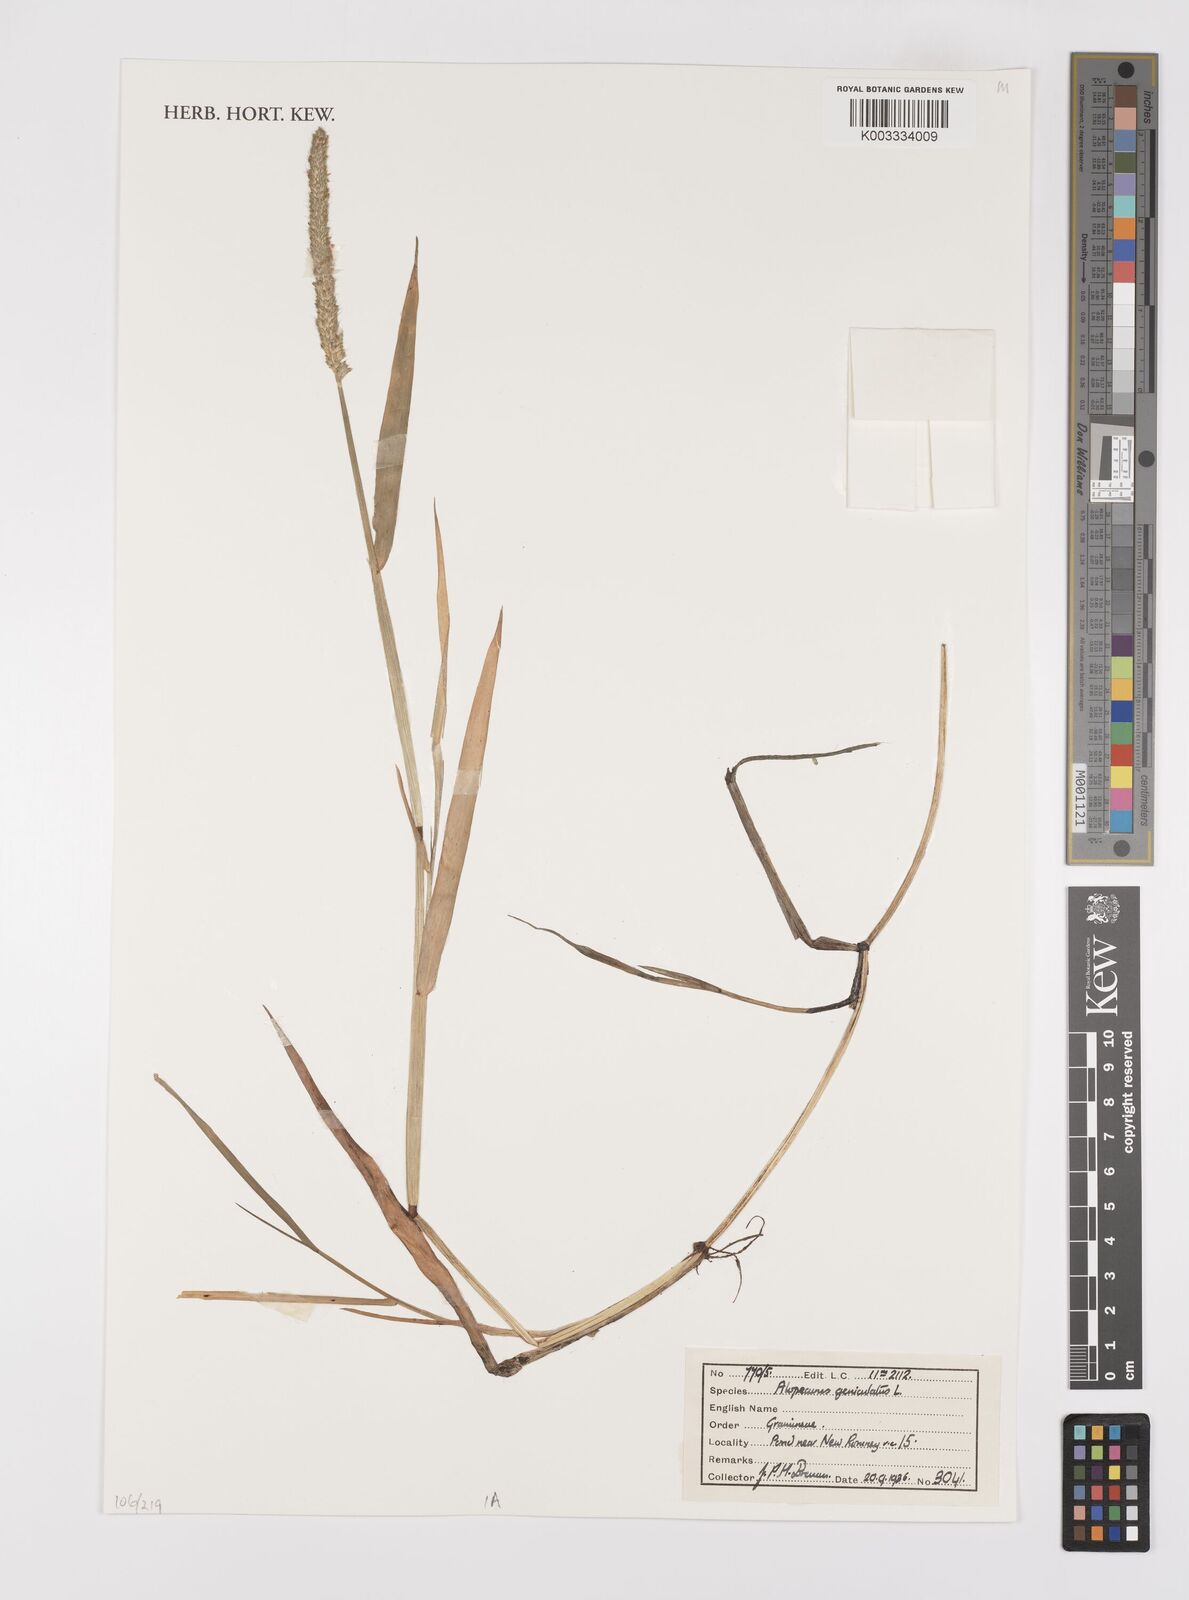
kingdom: Plantae
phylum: Tracheophyta
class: Liliopsida
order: Poales
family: Poaceae
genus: Alopecurus
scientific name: Alopecurus geniculatus
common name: Water foxtail
